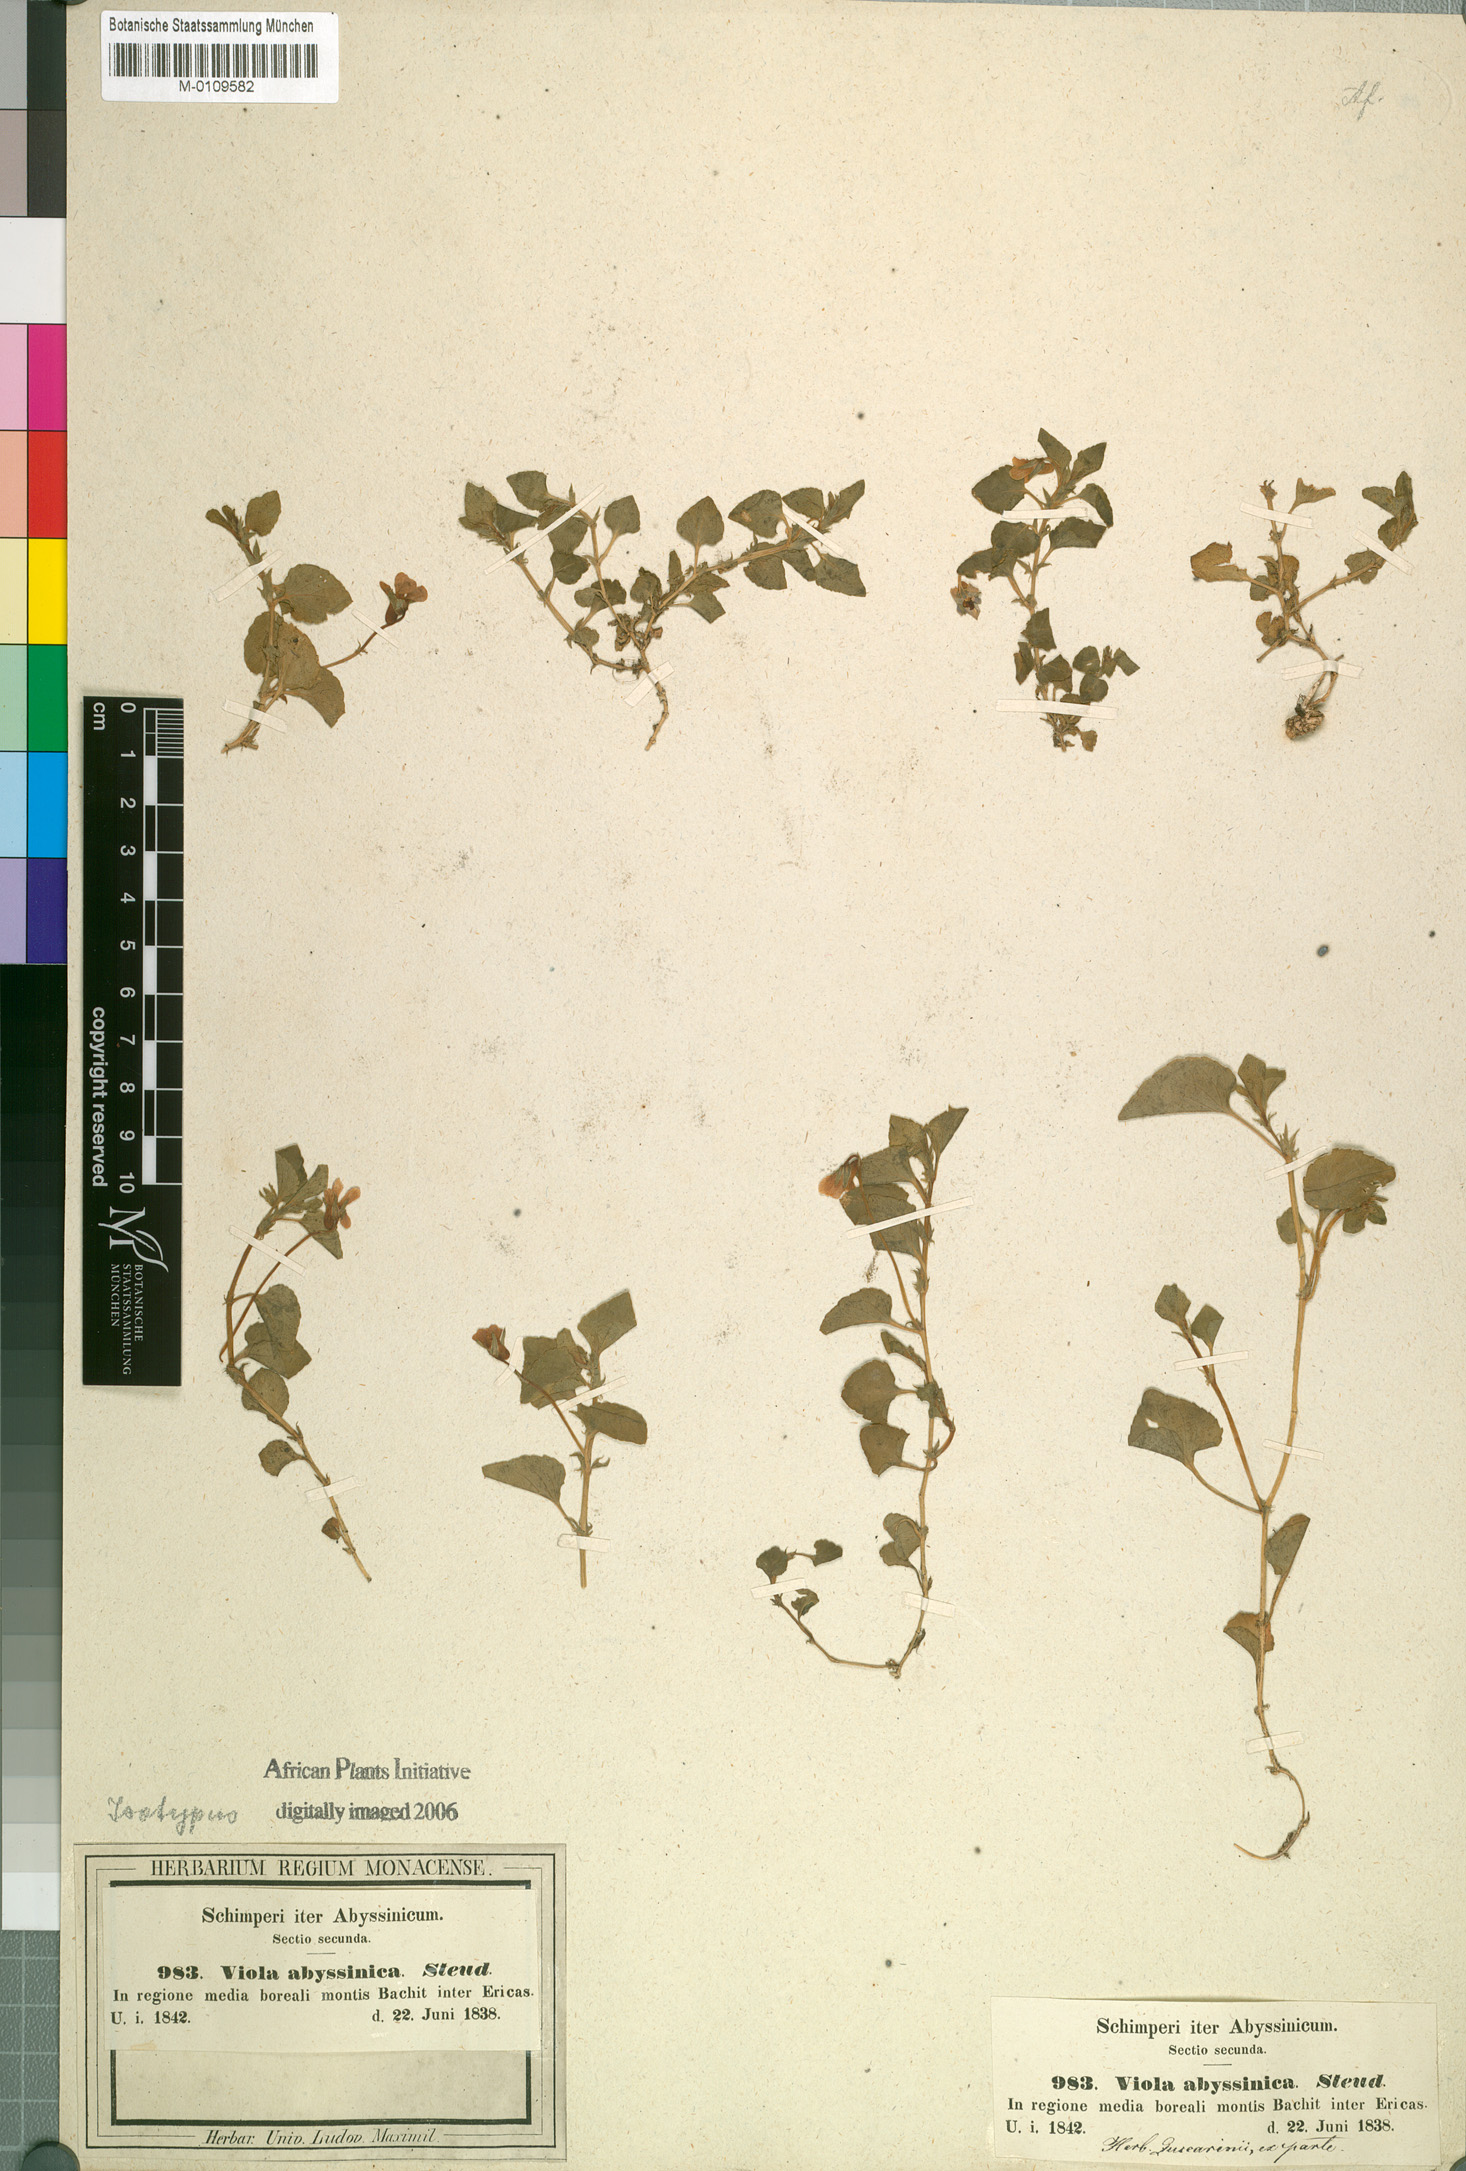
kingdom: Plantae
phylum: Tracheophyta
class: Magnoliopsida
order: Malpighiales
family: Violaceae
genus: Viola
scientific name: Viola abyssinica
